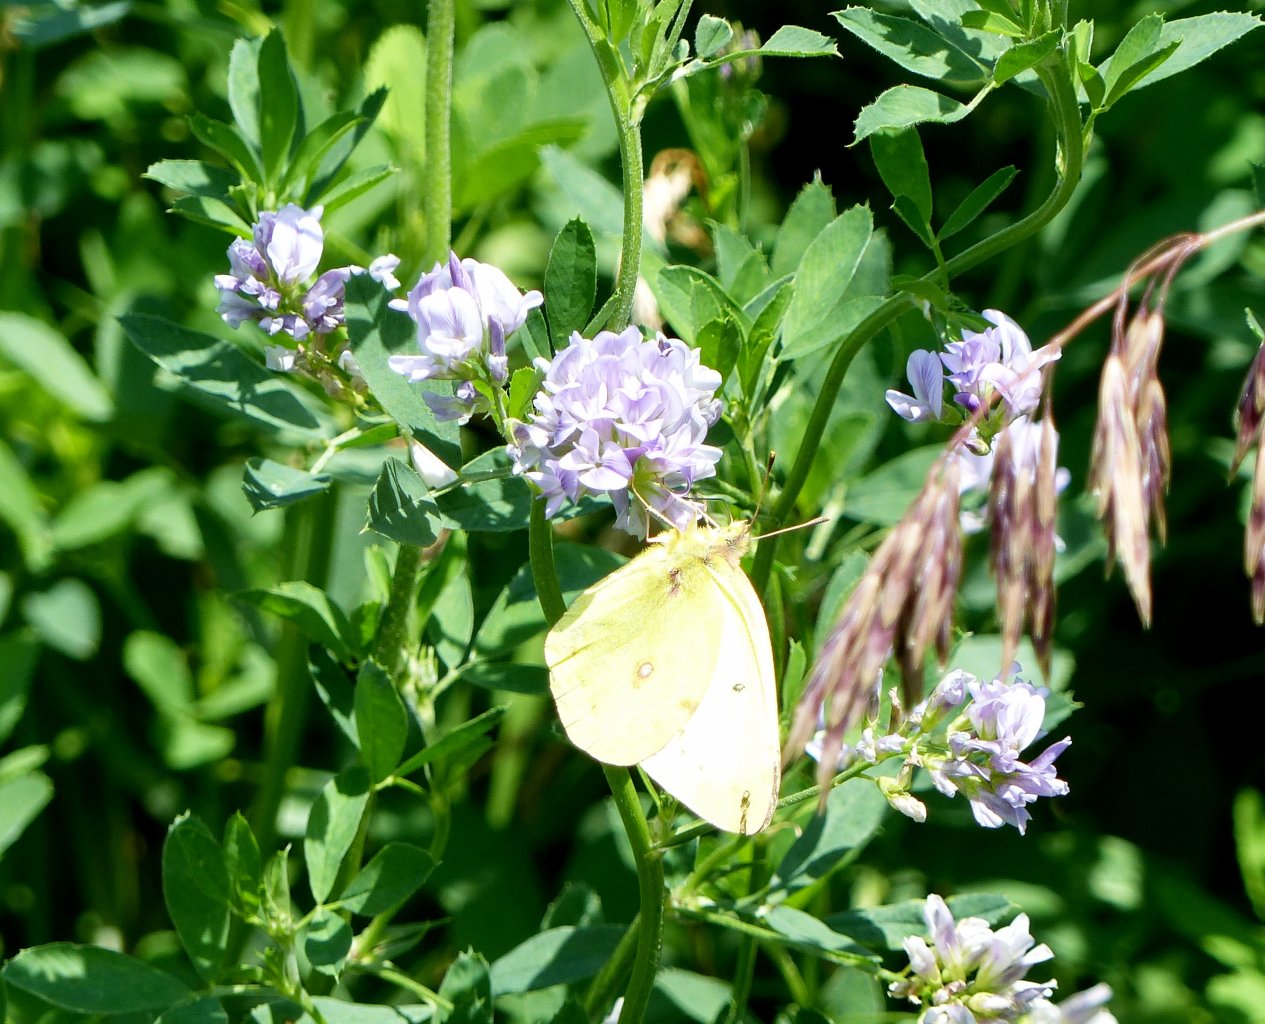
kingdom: Animalia
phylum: Arthropoda
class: Insecta
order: Lepidoptera
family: Pieridae
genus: Colias
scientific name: Colias philodice
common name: Clouded Sulphur
